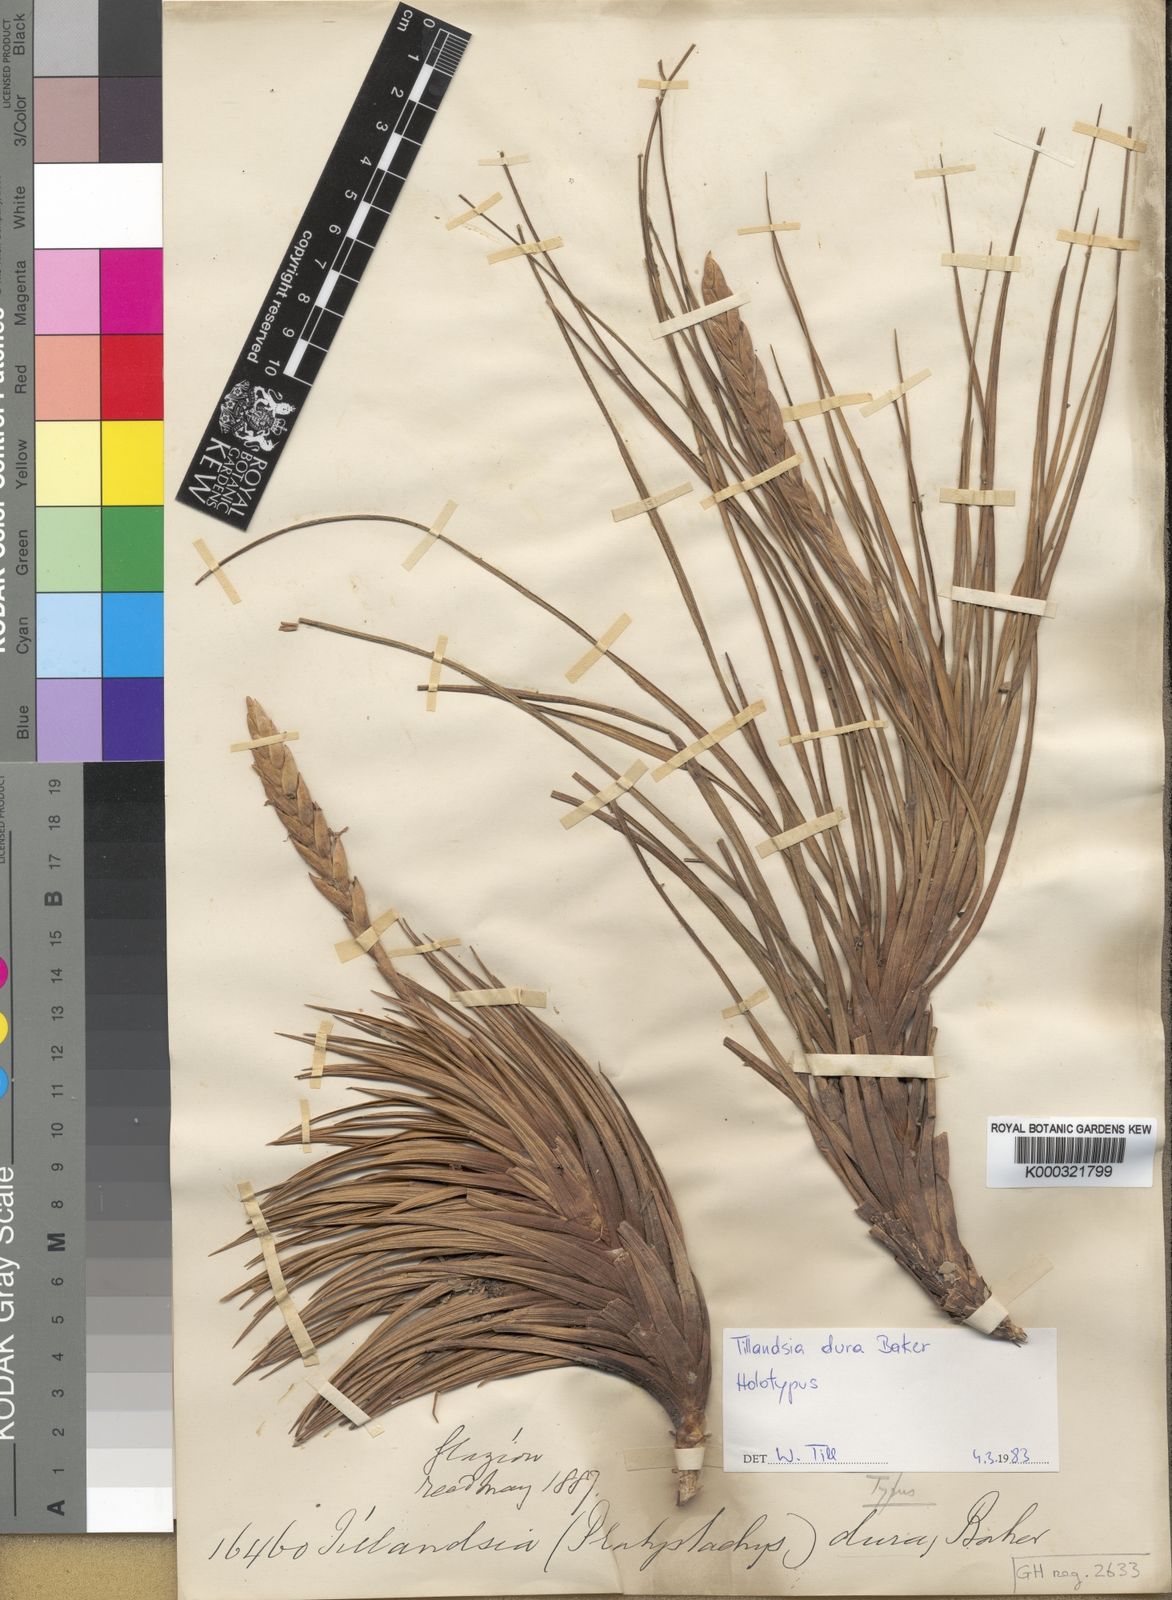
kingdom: Plantae
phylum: Tracheophyta
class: Liliopsida
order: Poales
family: Bromeliaceae
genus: Tillandsia
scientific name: Tillandsia dura
